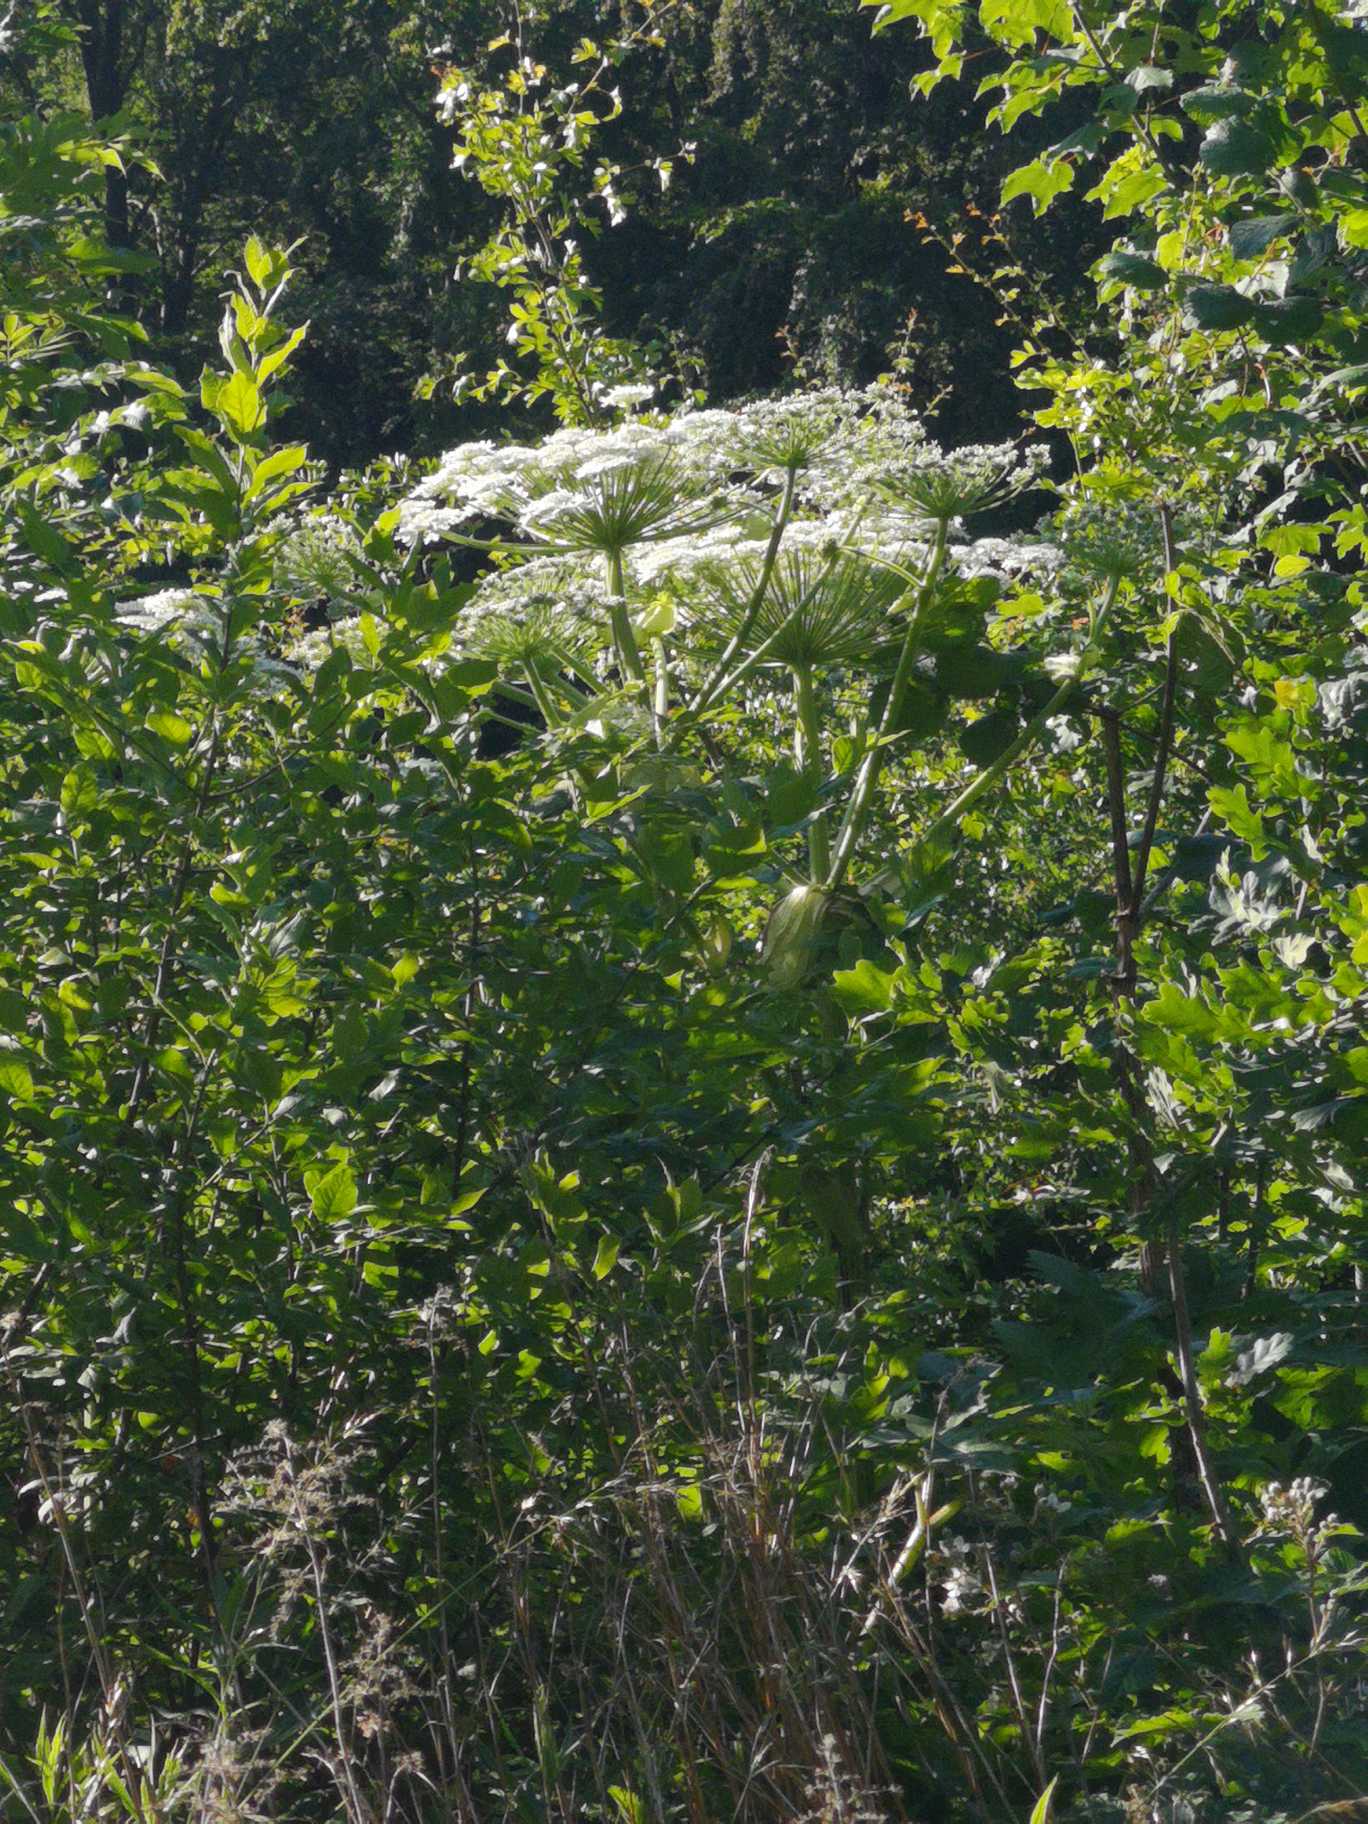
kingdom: Plantae
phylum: Tracheophyta
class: Magnoliopsida
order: Apiales
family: Apiaceae
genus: Heracleum
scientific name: Heracleum mantegazzianum
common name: Kæmpe-bjørneklo
